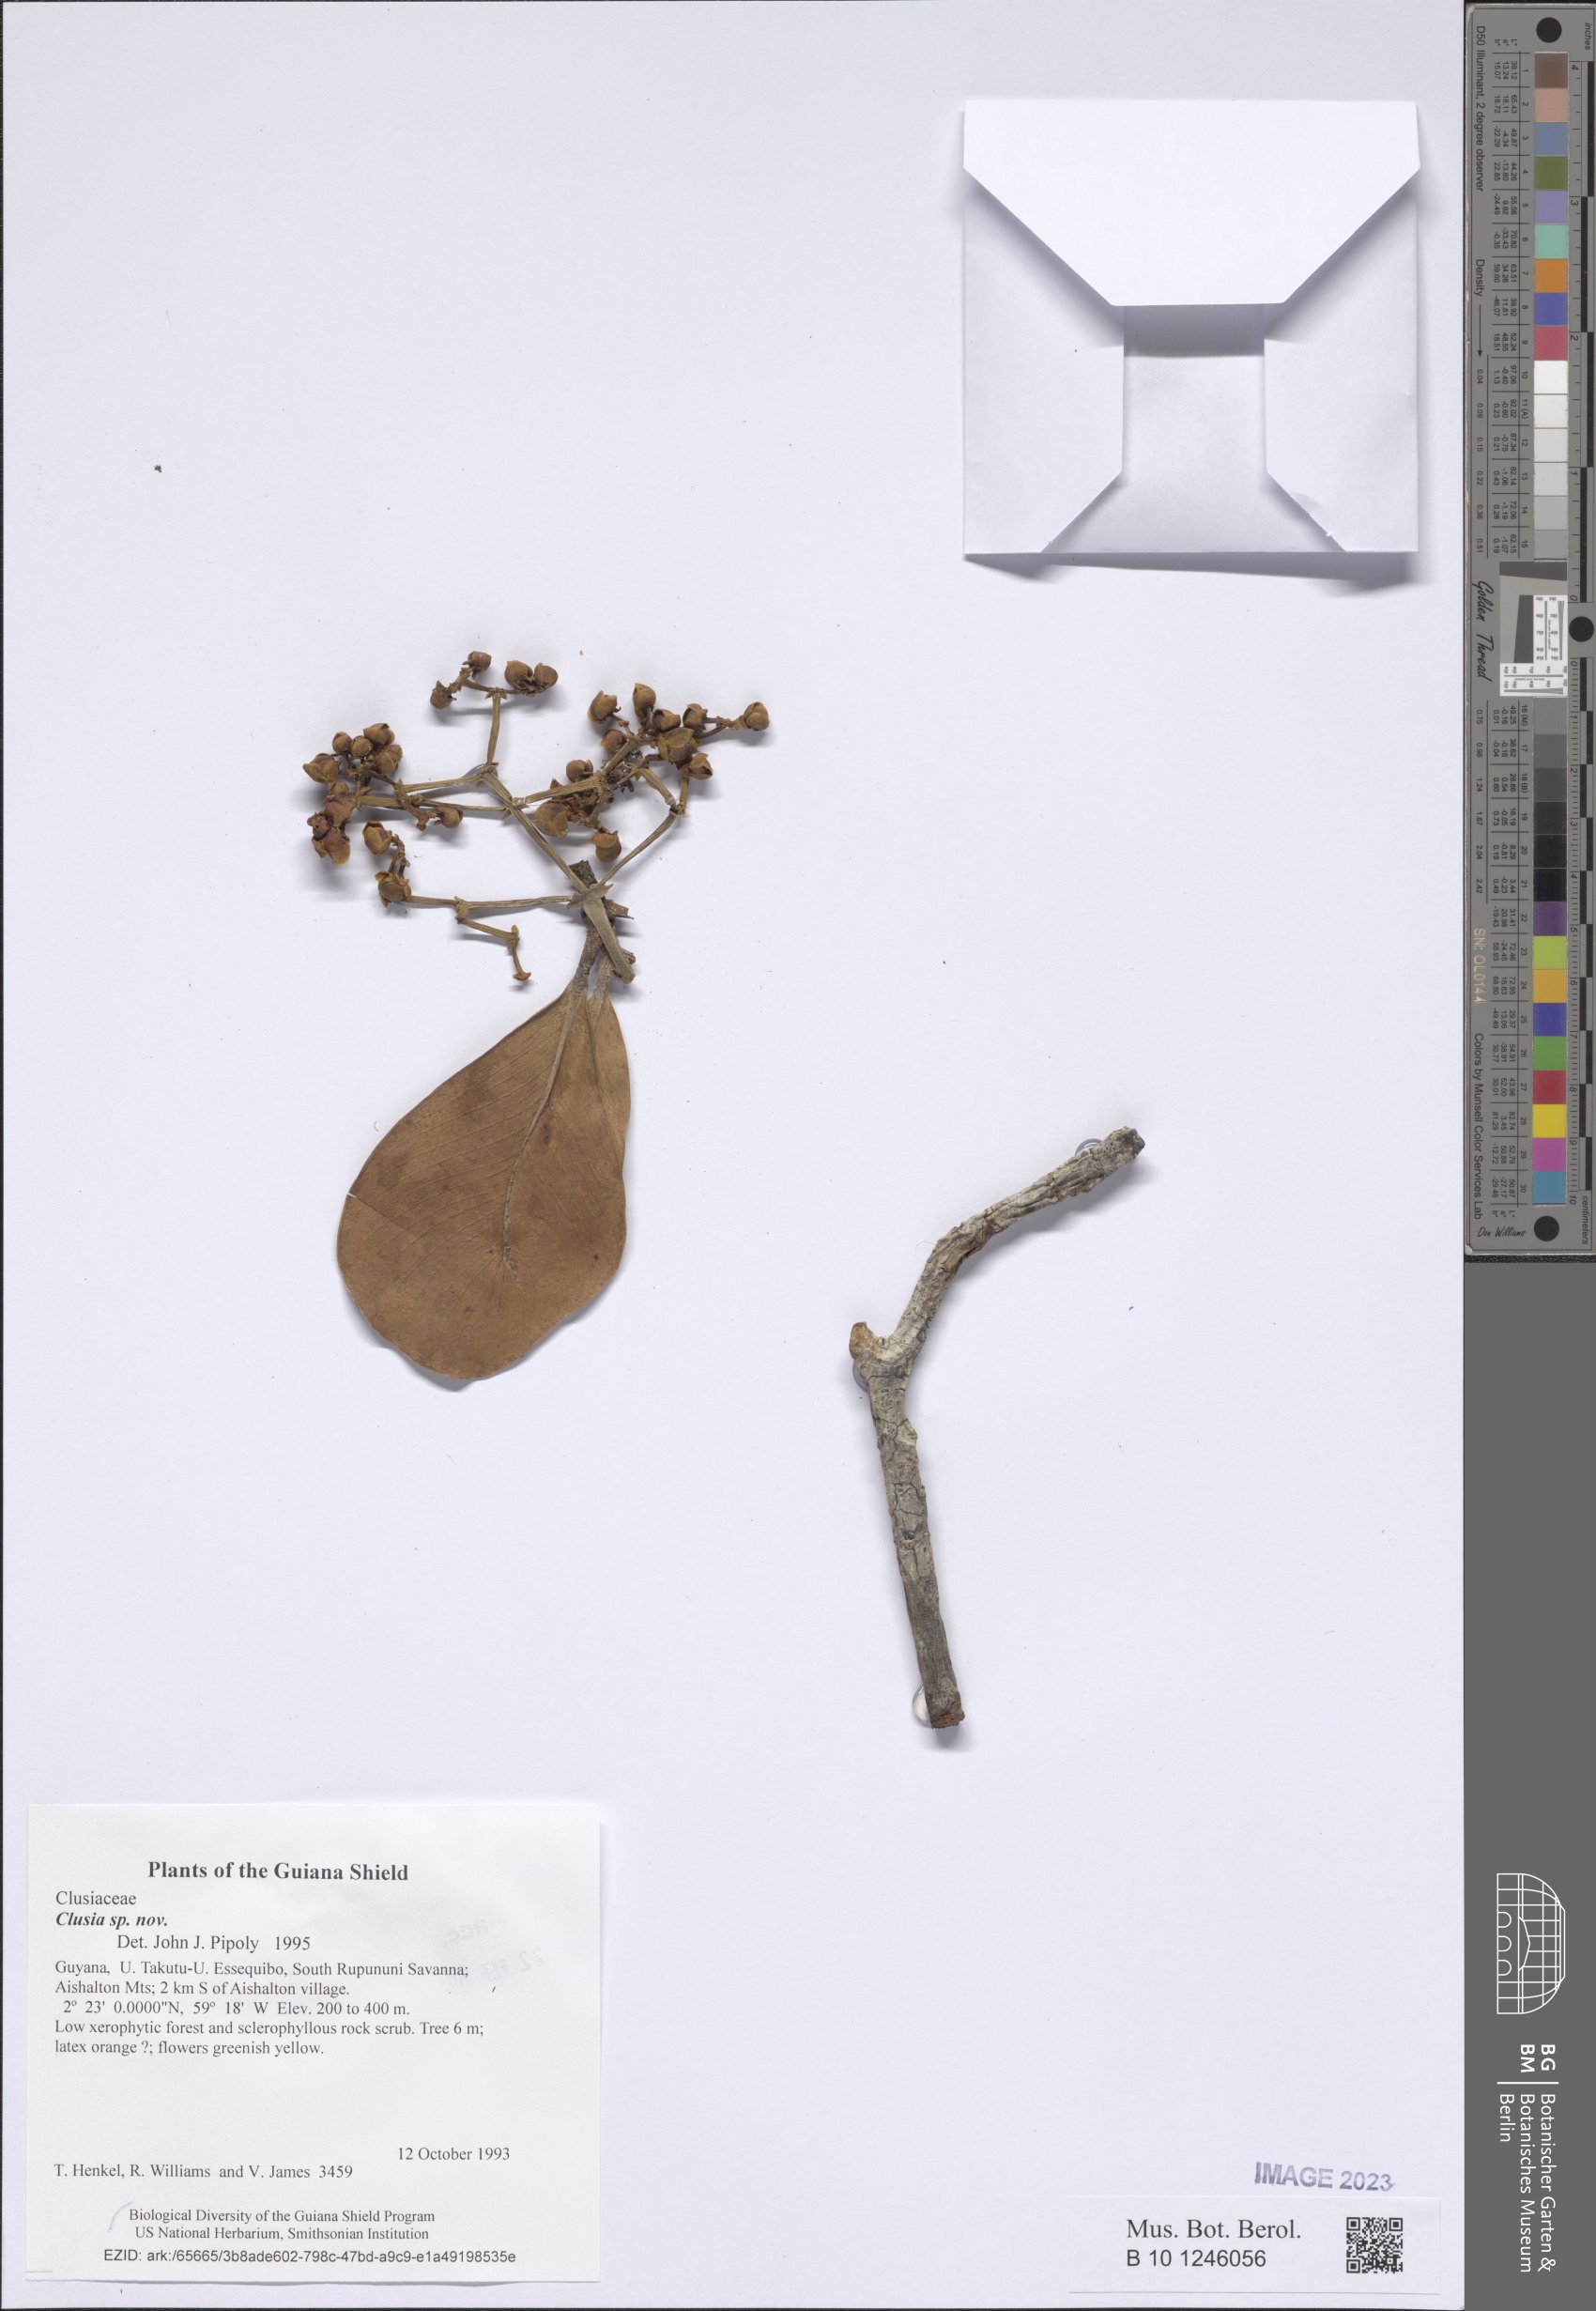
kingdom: Plantae
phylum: Tracheophyta
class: Magnoliopsida
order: Malpighiales
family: Clusiaceae
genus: Clusia
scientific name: Clusia aishaltonensis
